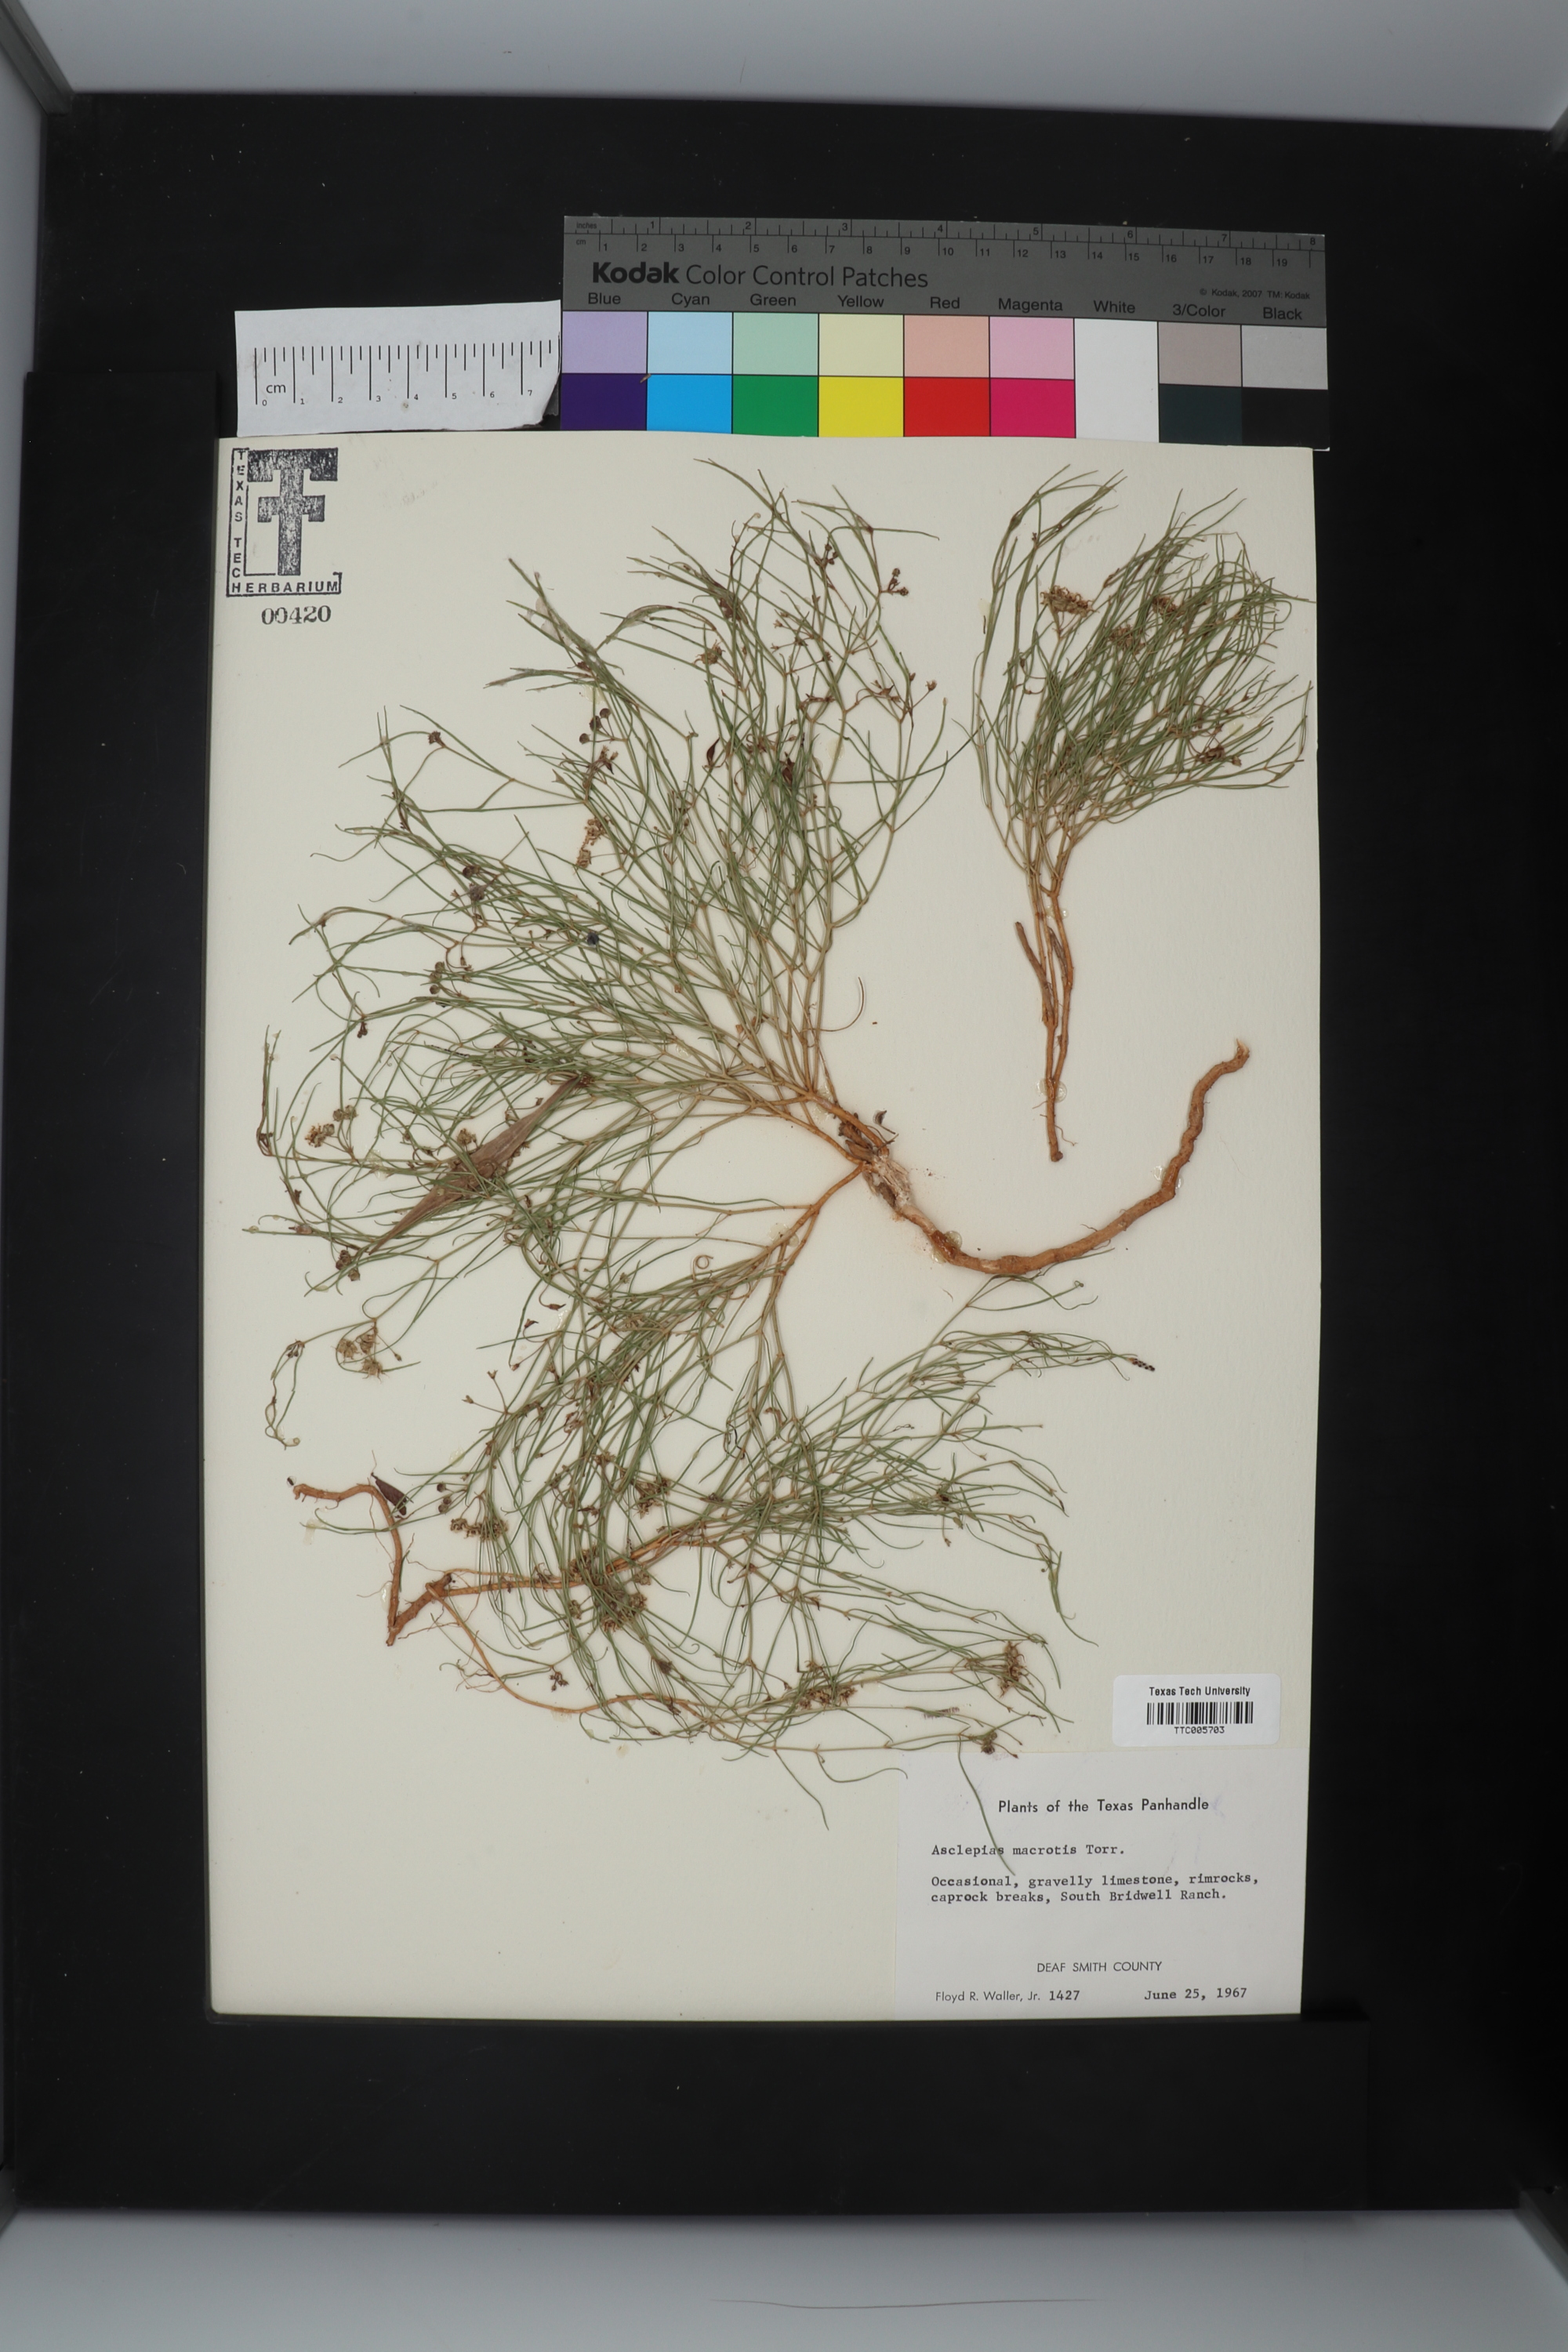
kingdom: Plantae
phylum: Tracheophyta
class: Magnoliopsida
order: Gentianales
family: Apocynaceae
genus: Asclepias
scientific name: Asclepias macrotis
